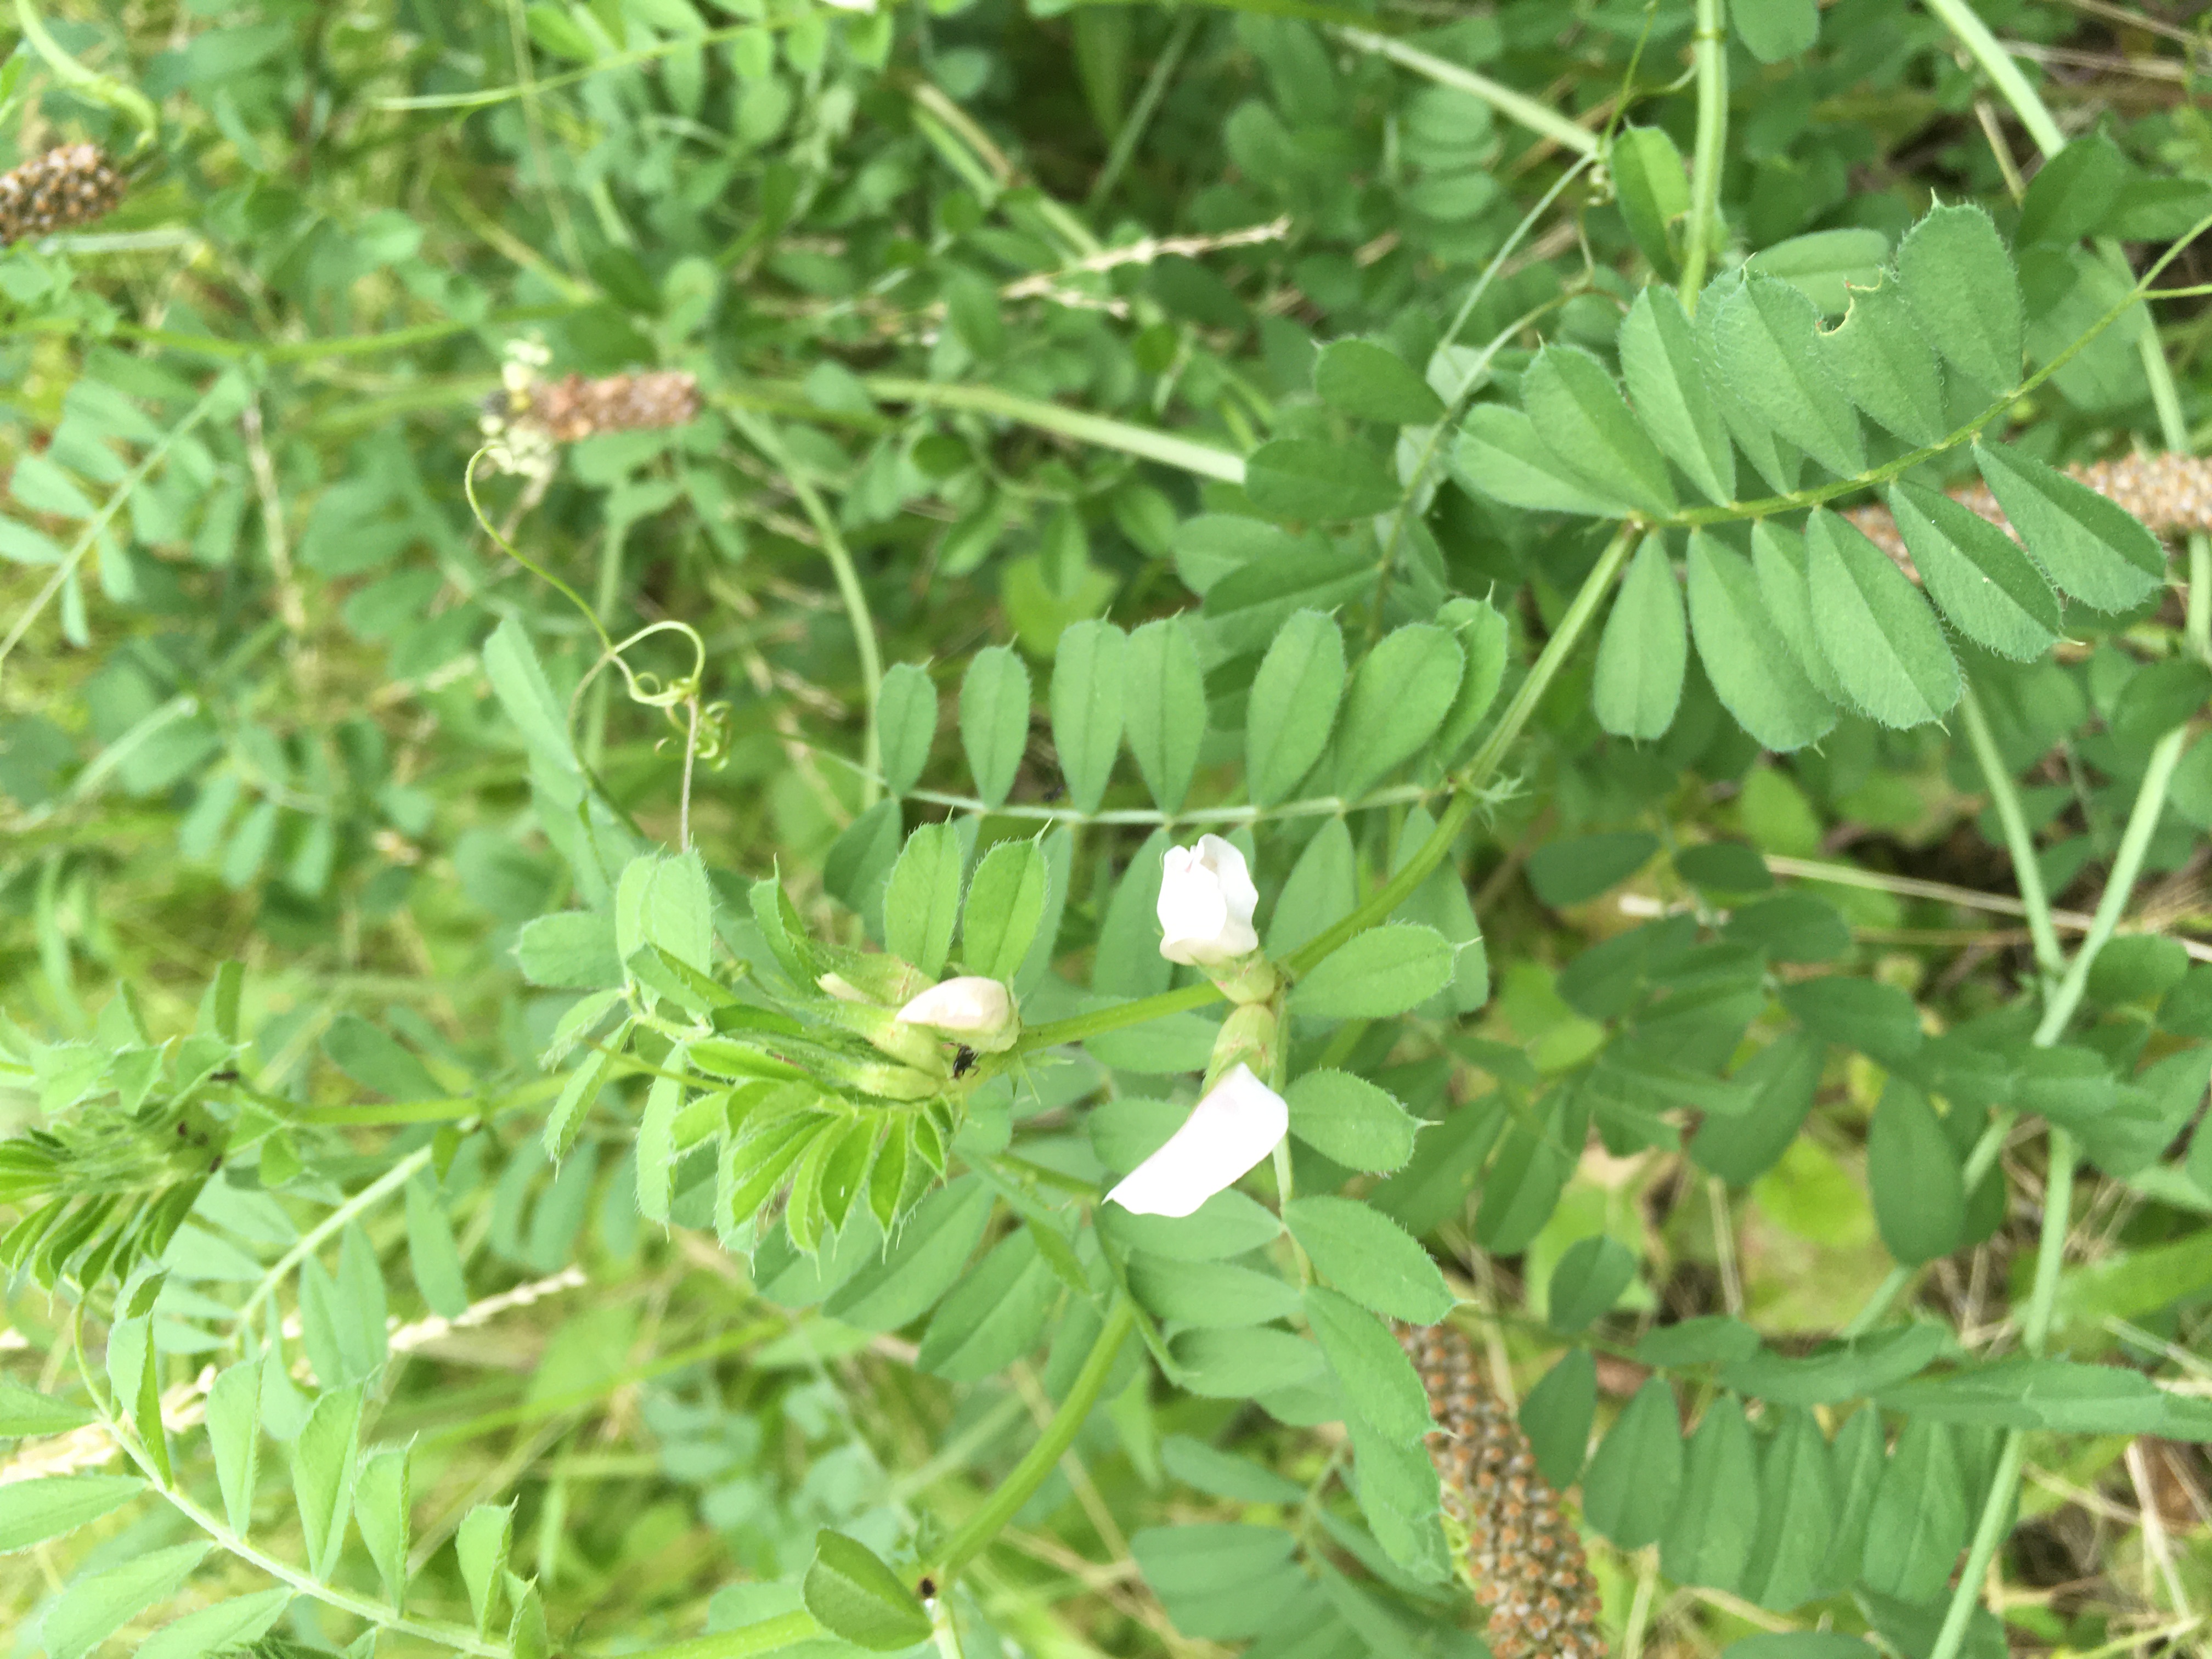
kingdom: Plantae
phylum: Tracheophyta
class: Magnoliopsida
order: Fabales
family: Fabaceae
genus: Vicia
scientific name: Vicia sativa
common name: Garden vetch
